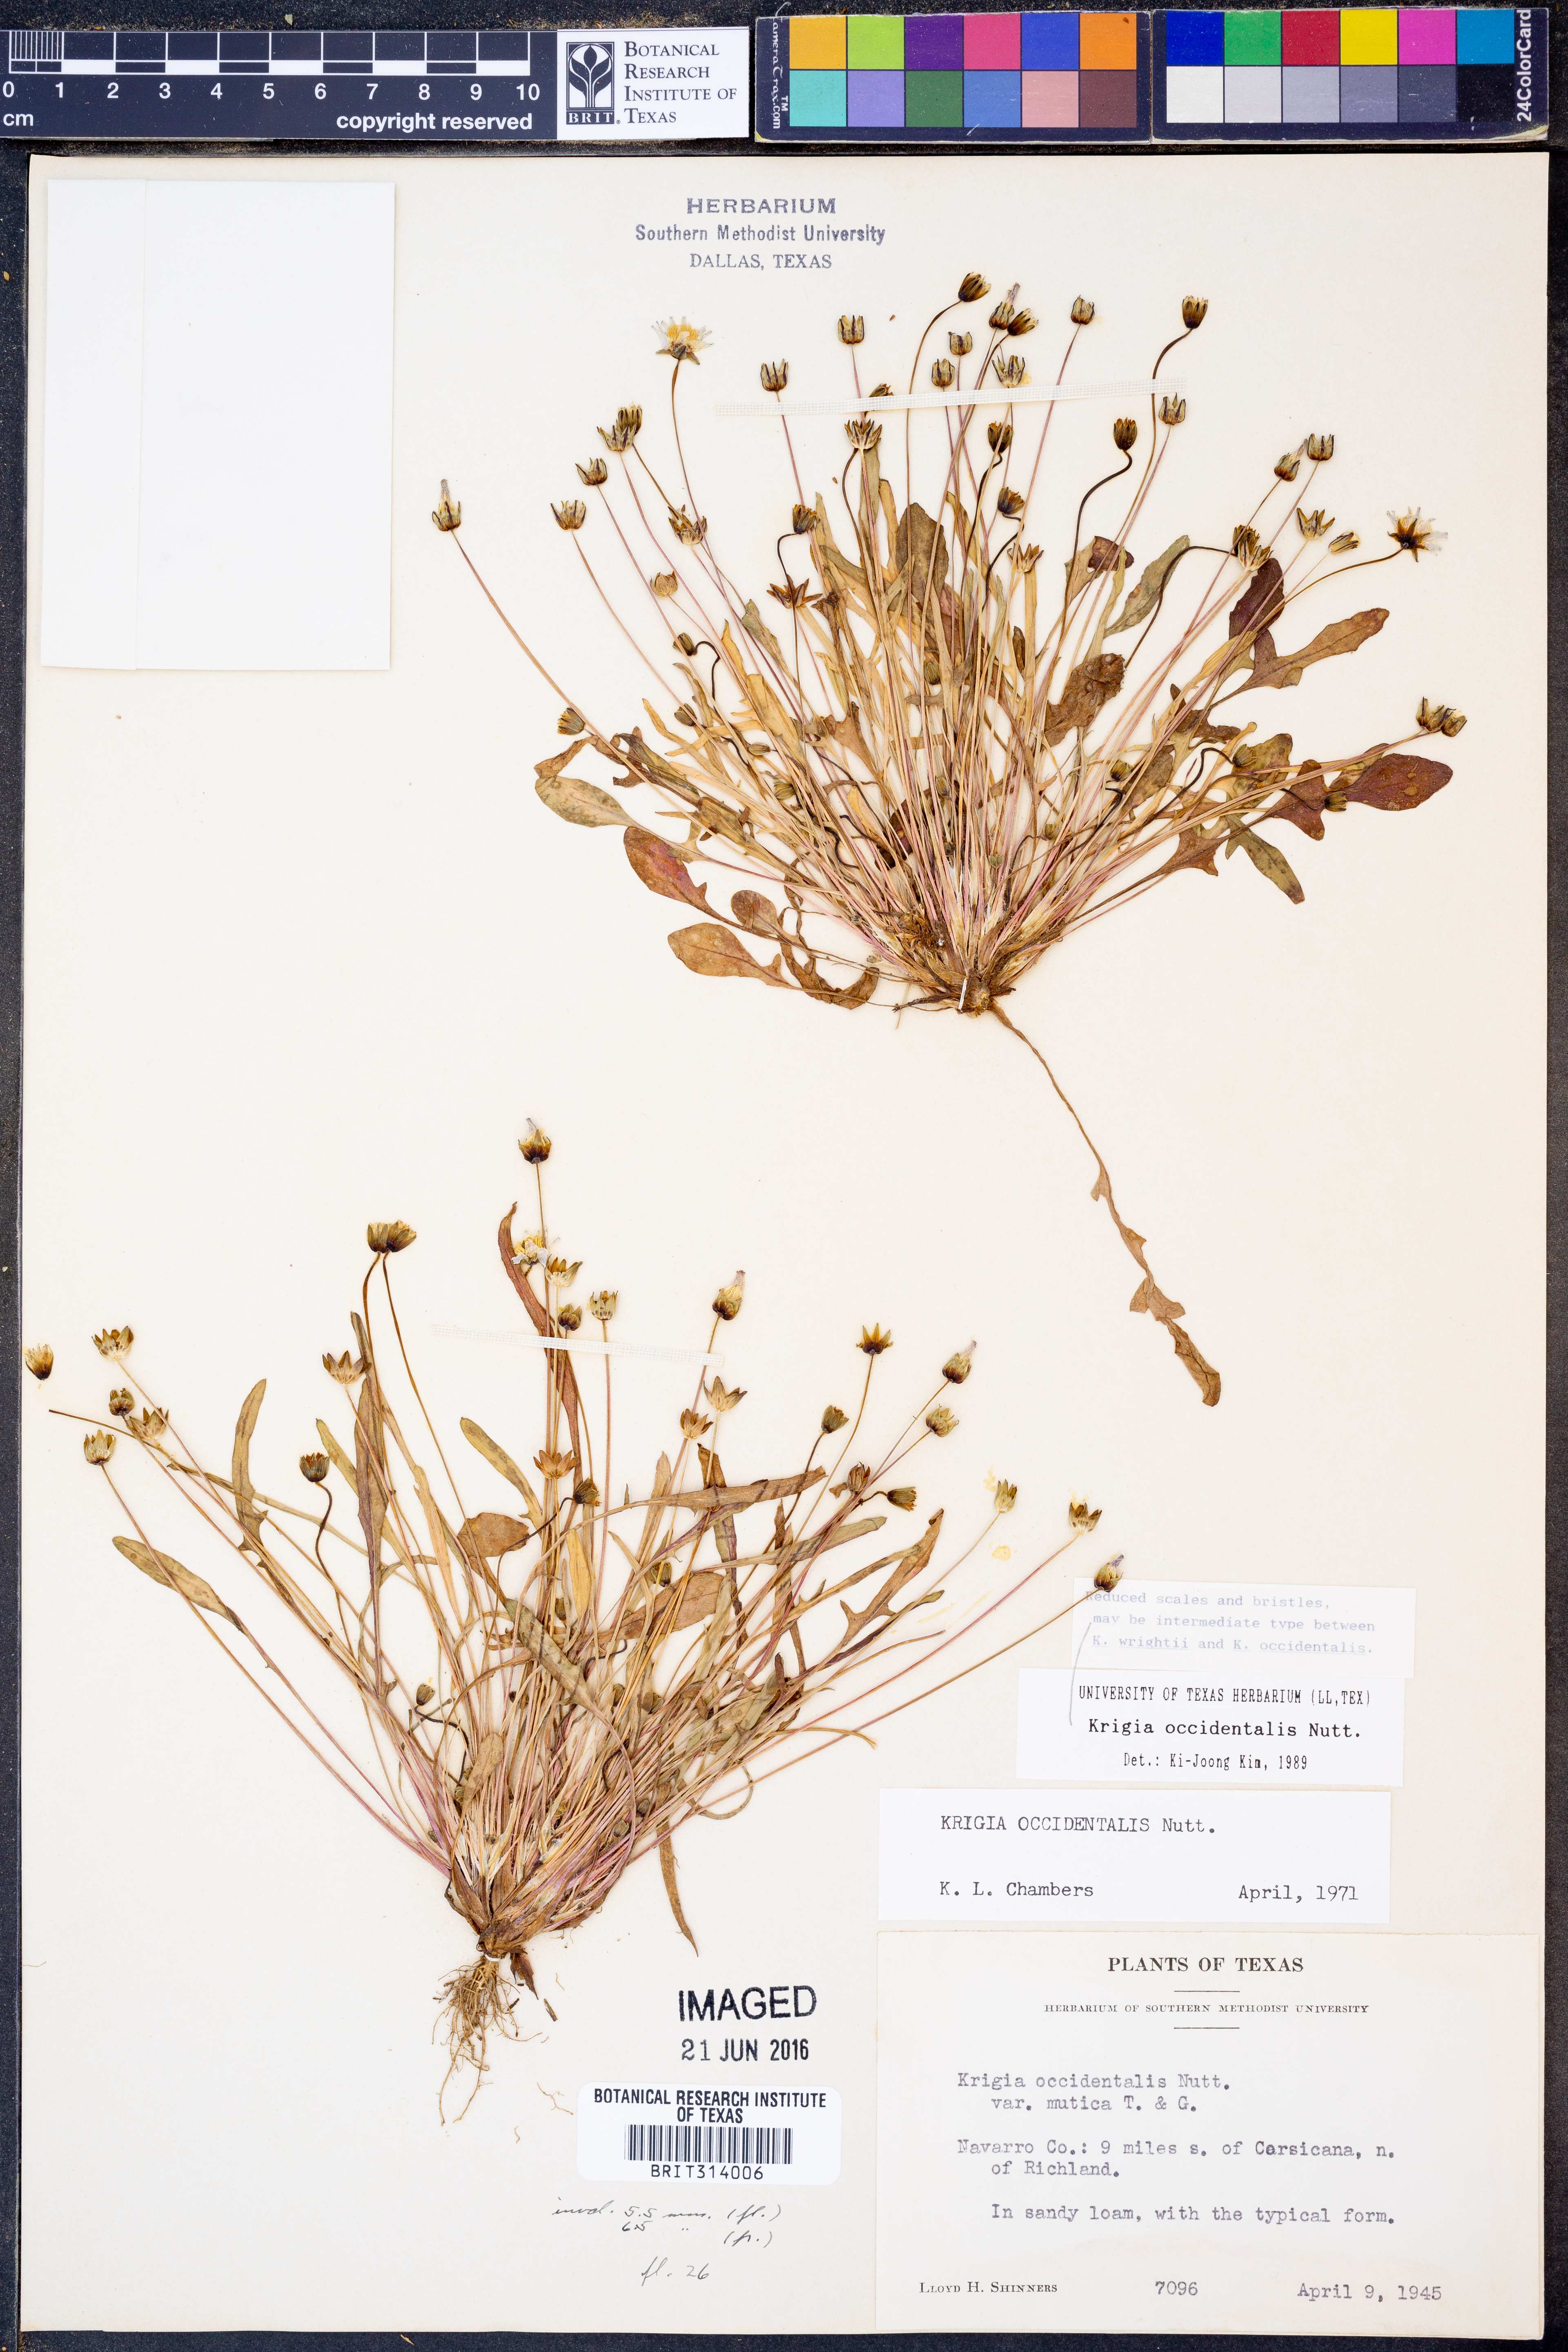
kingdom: Plantae
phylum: Tracheophyta
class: Magnoliopsida
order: Asterales
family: Asteraceae
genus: Krigia
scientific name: Krigia occidentalis
